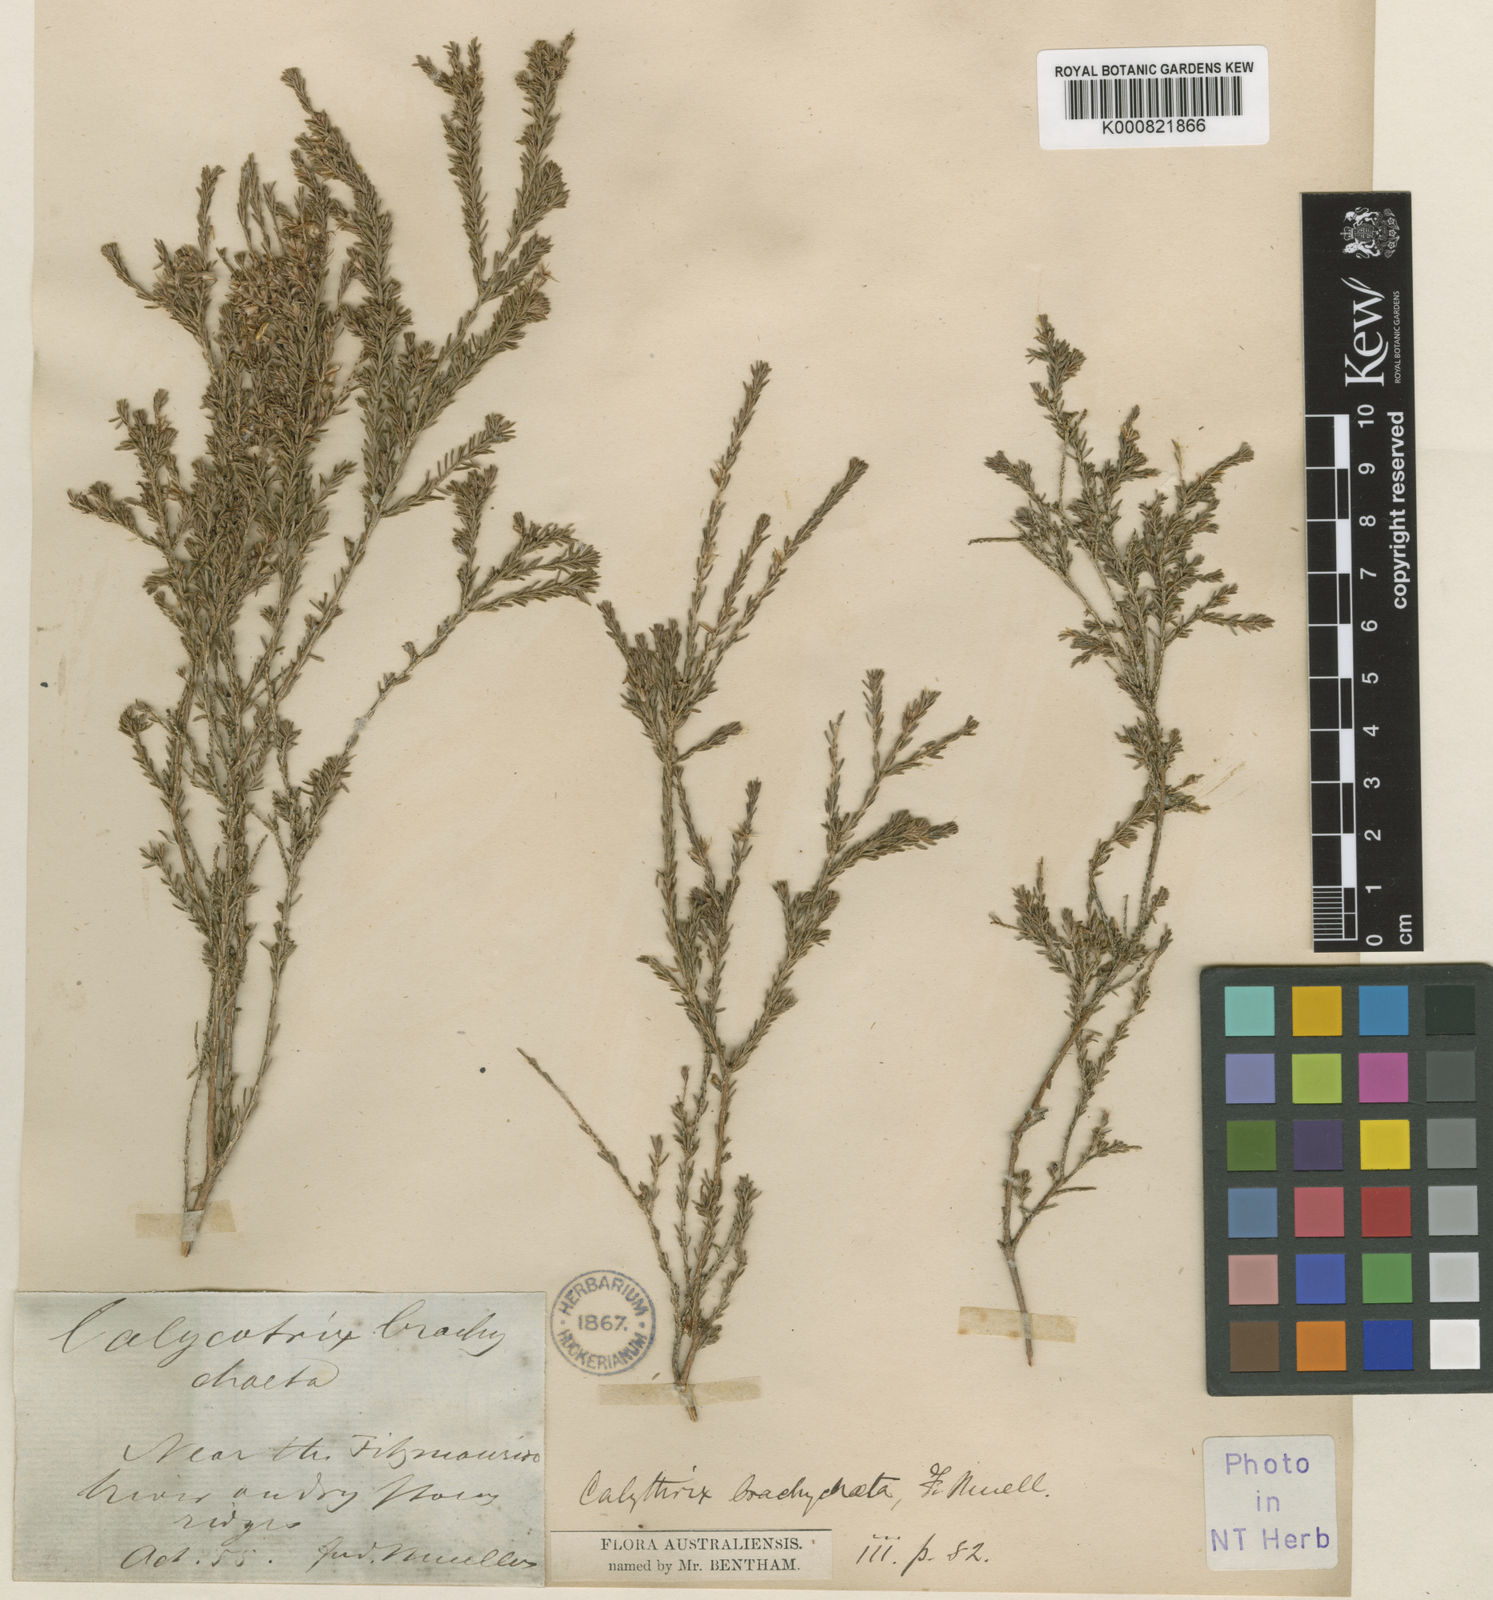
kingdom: Plantae
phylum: Tracheophyta
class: Magnoliopsida
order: Myrtales
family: Myrtaceae
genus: Calytrix
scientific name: Calytrix brownii
